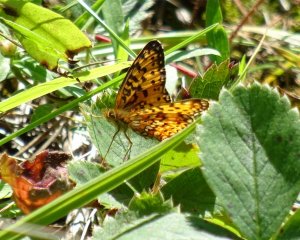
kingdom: Animalia
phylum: Arthropoda
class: Insecta
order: Lepidoptera
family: Nymphalidae
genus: Boloria
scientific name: Boloria selene
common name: Silver-bordered Fritillary
